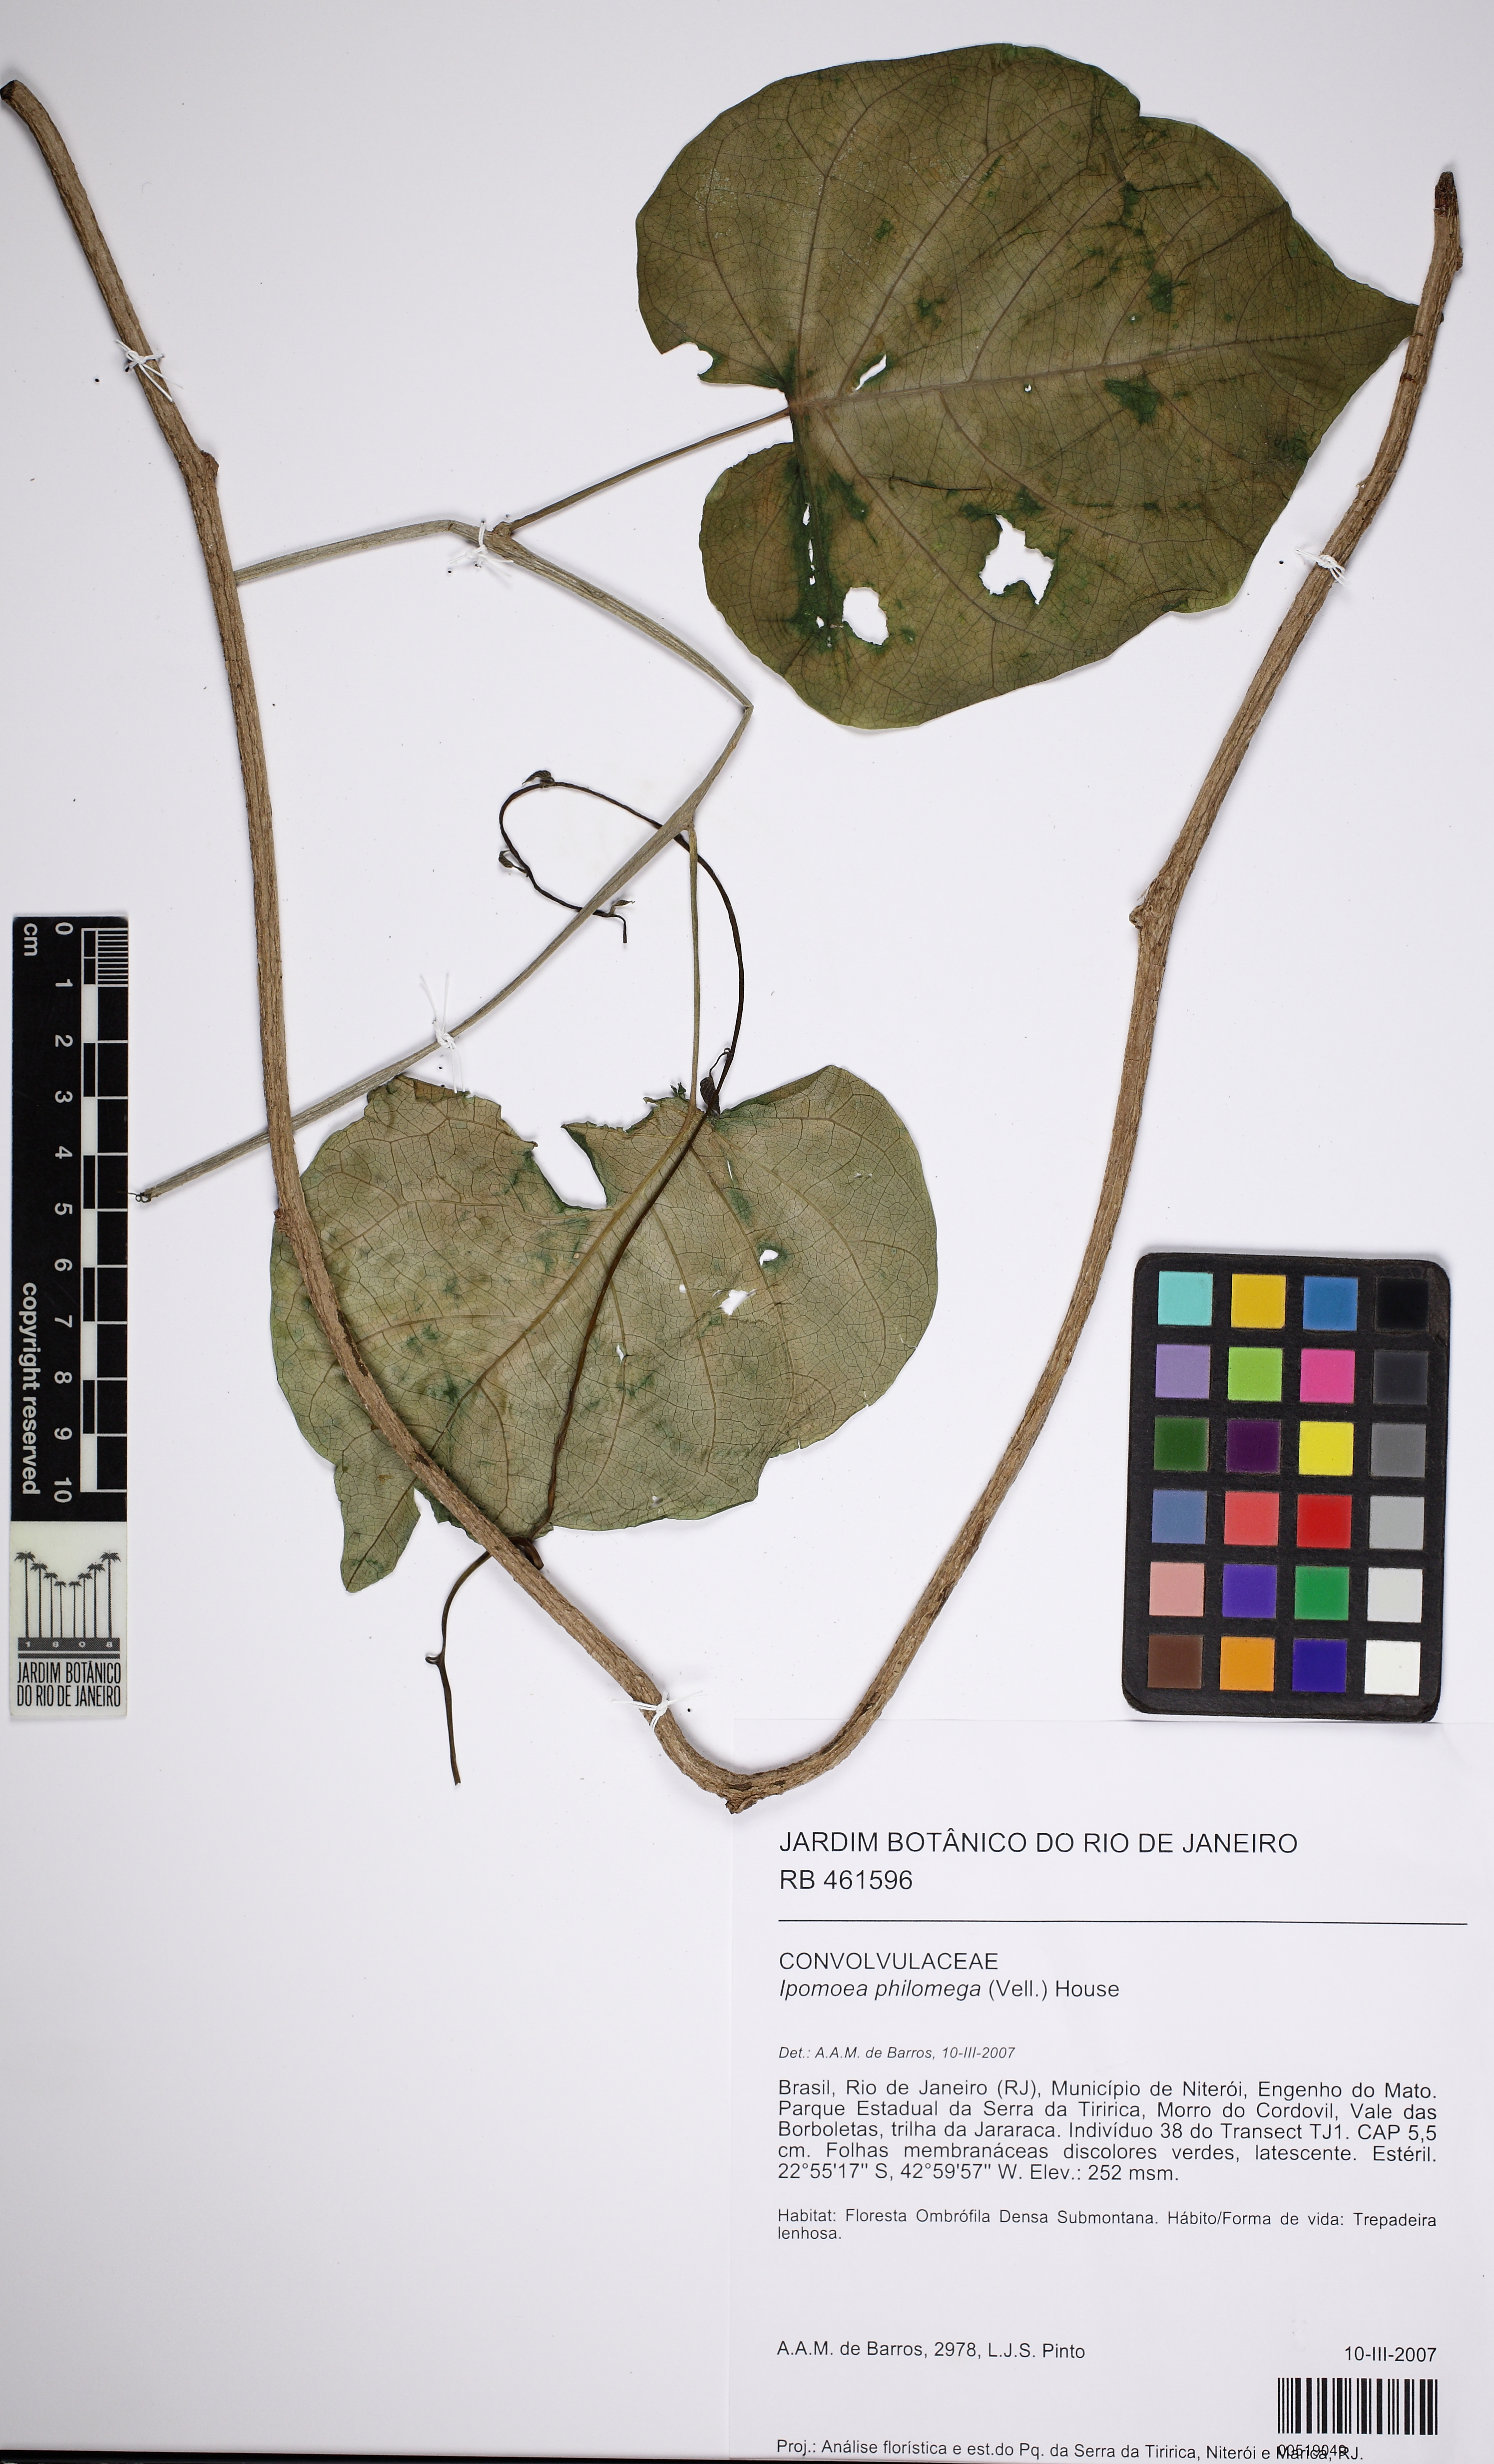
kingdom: Plantae
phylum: Tracheophyta
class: Magnoliopsida
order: Solanales
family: Convolvulaceae
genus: Ipomoea
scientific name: Ipomoea philomega
